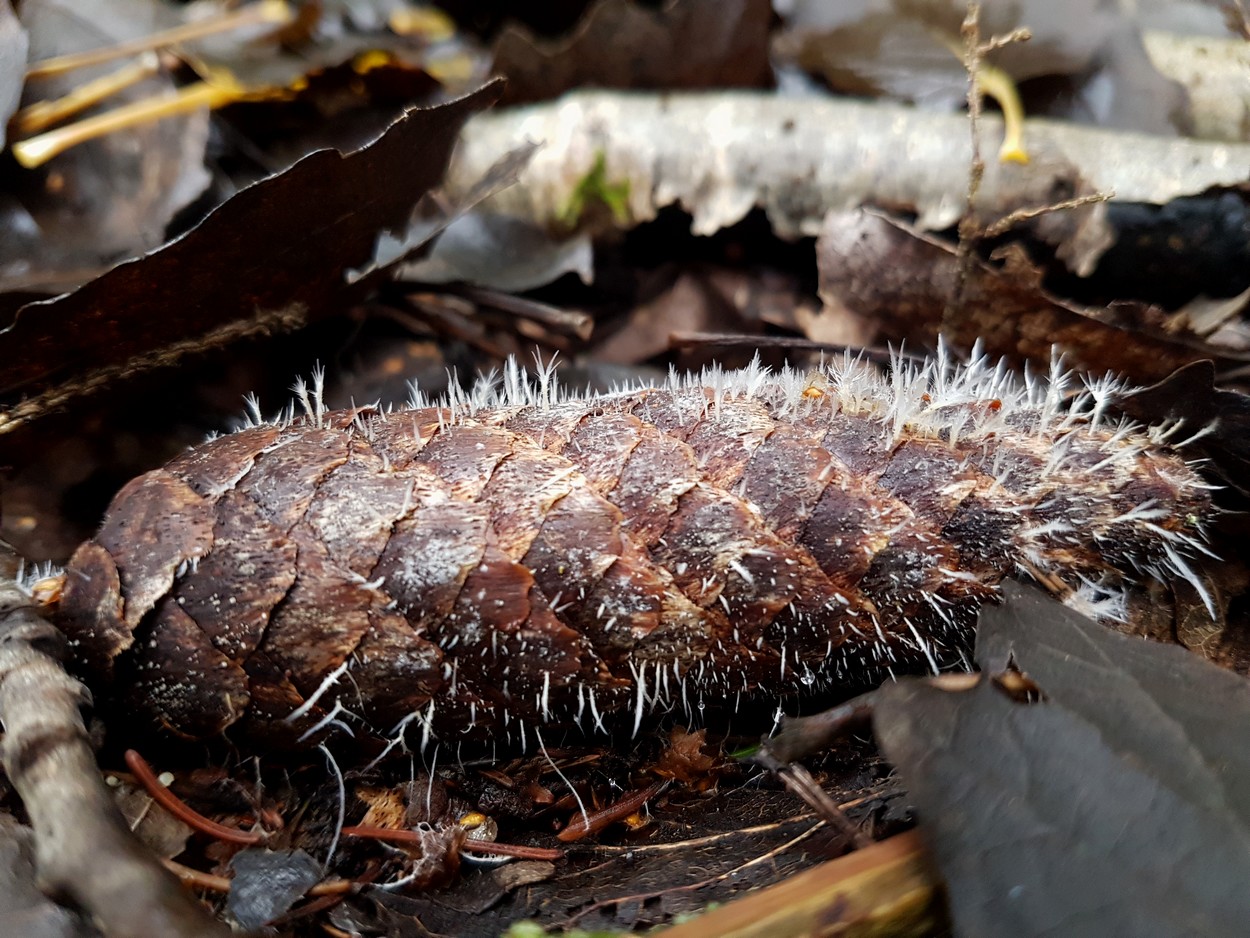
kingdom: Fungi
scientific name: Fungi
